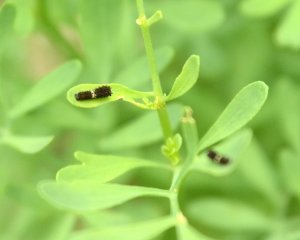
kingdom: Animalia
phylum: Arthropoda
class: Insecta
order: Lepidoptera
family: Papilionidae
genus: Pterourus
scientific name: Pterourus glaucus
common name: Eastern Tiger Swallowtail
